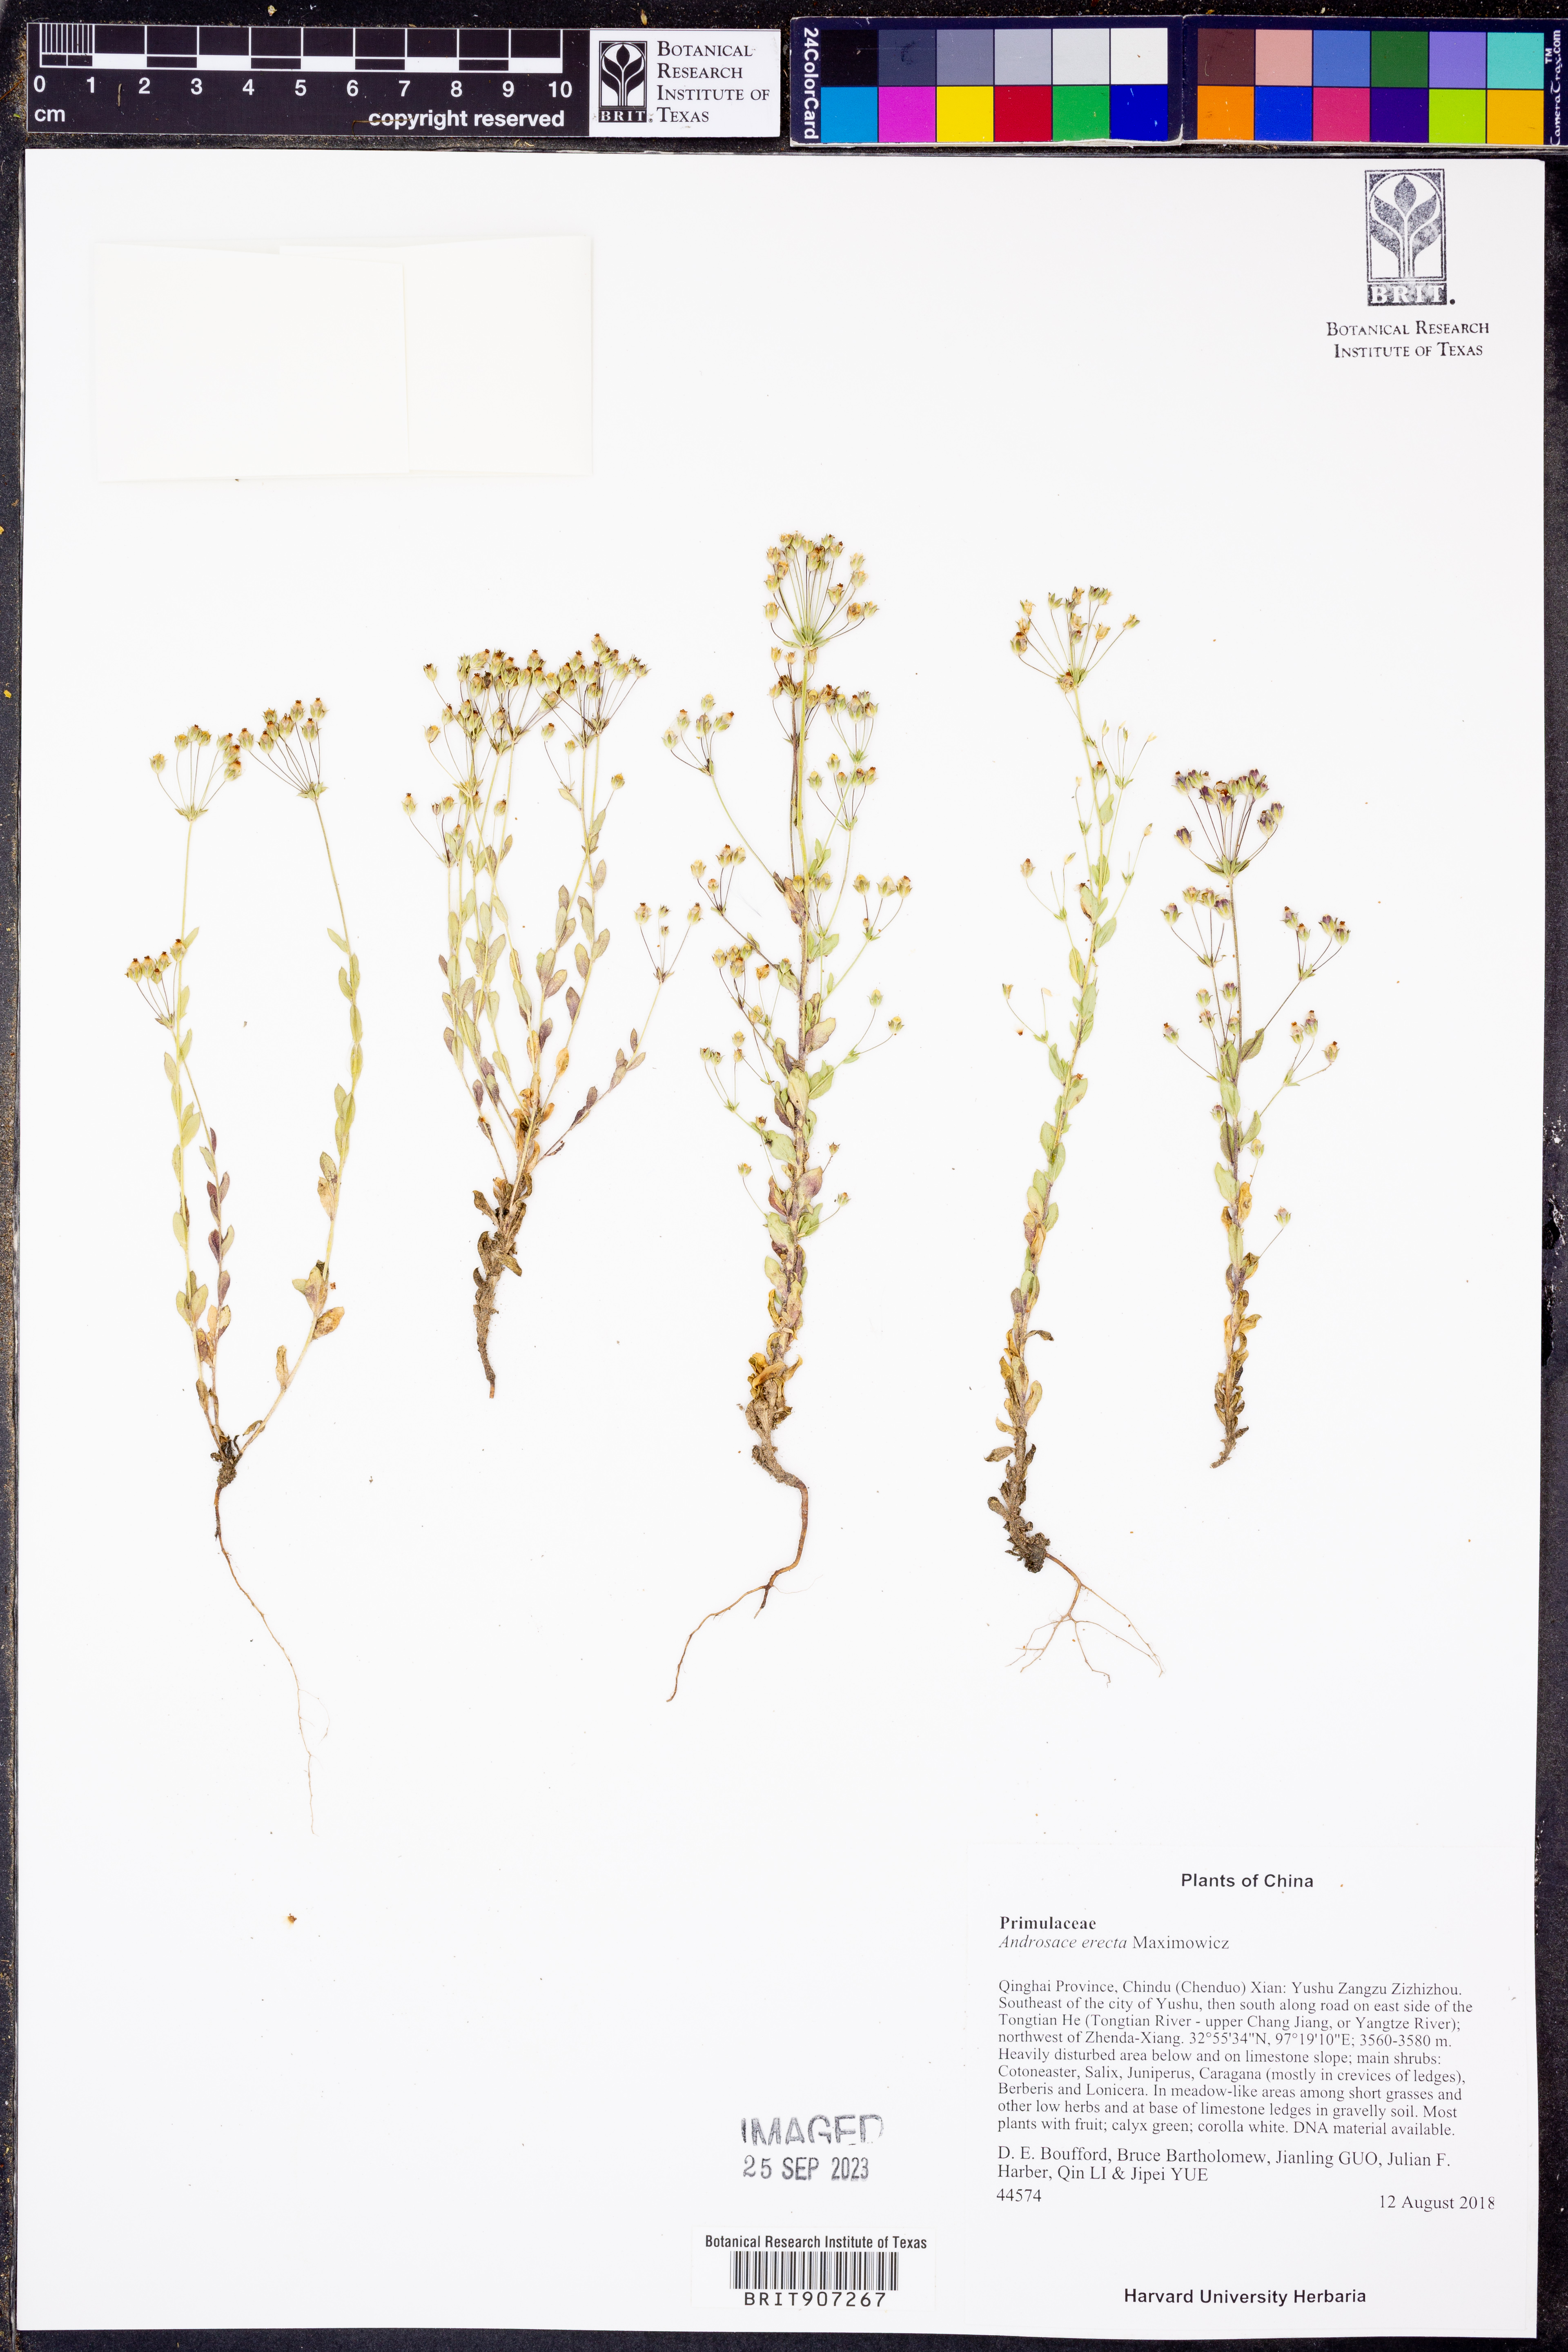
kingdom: Plantae
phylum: Tracheophyta
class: Magnoliopsida
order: Ericales
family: Primulaceae
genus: Androsace
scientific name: Androsace erecta
